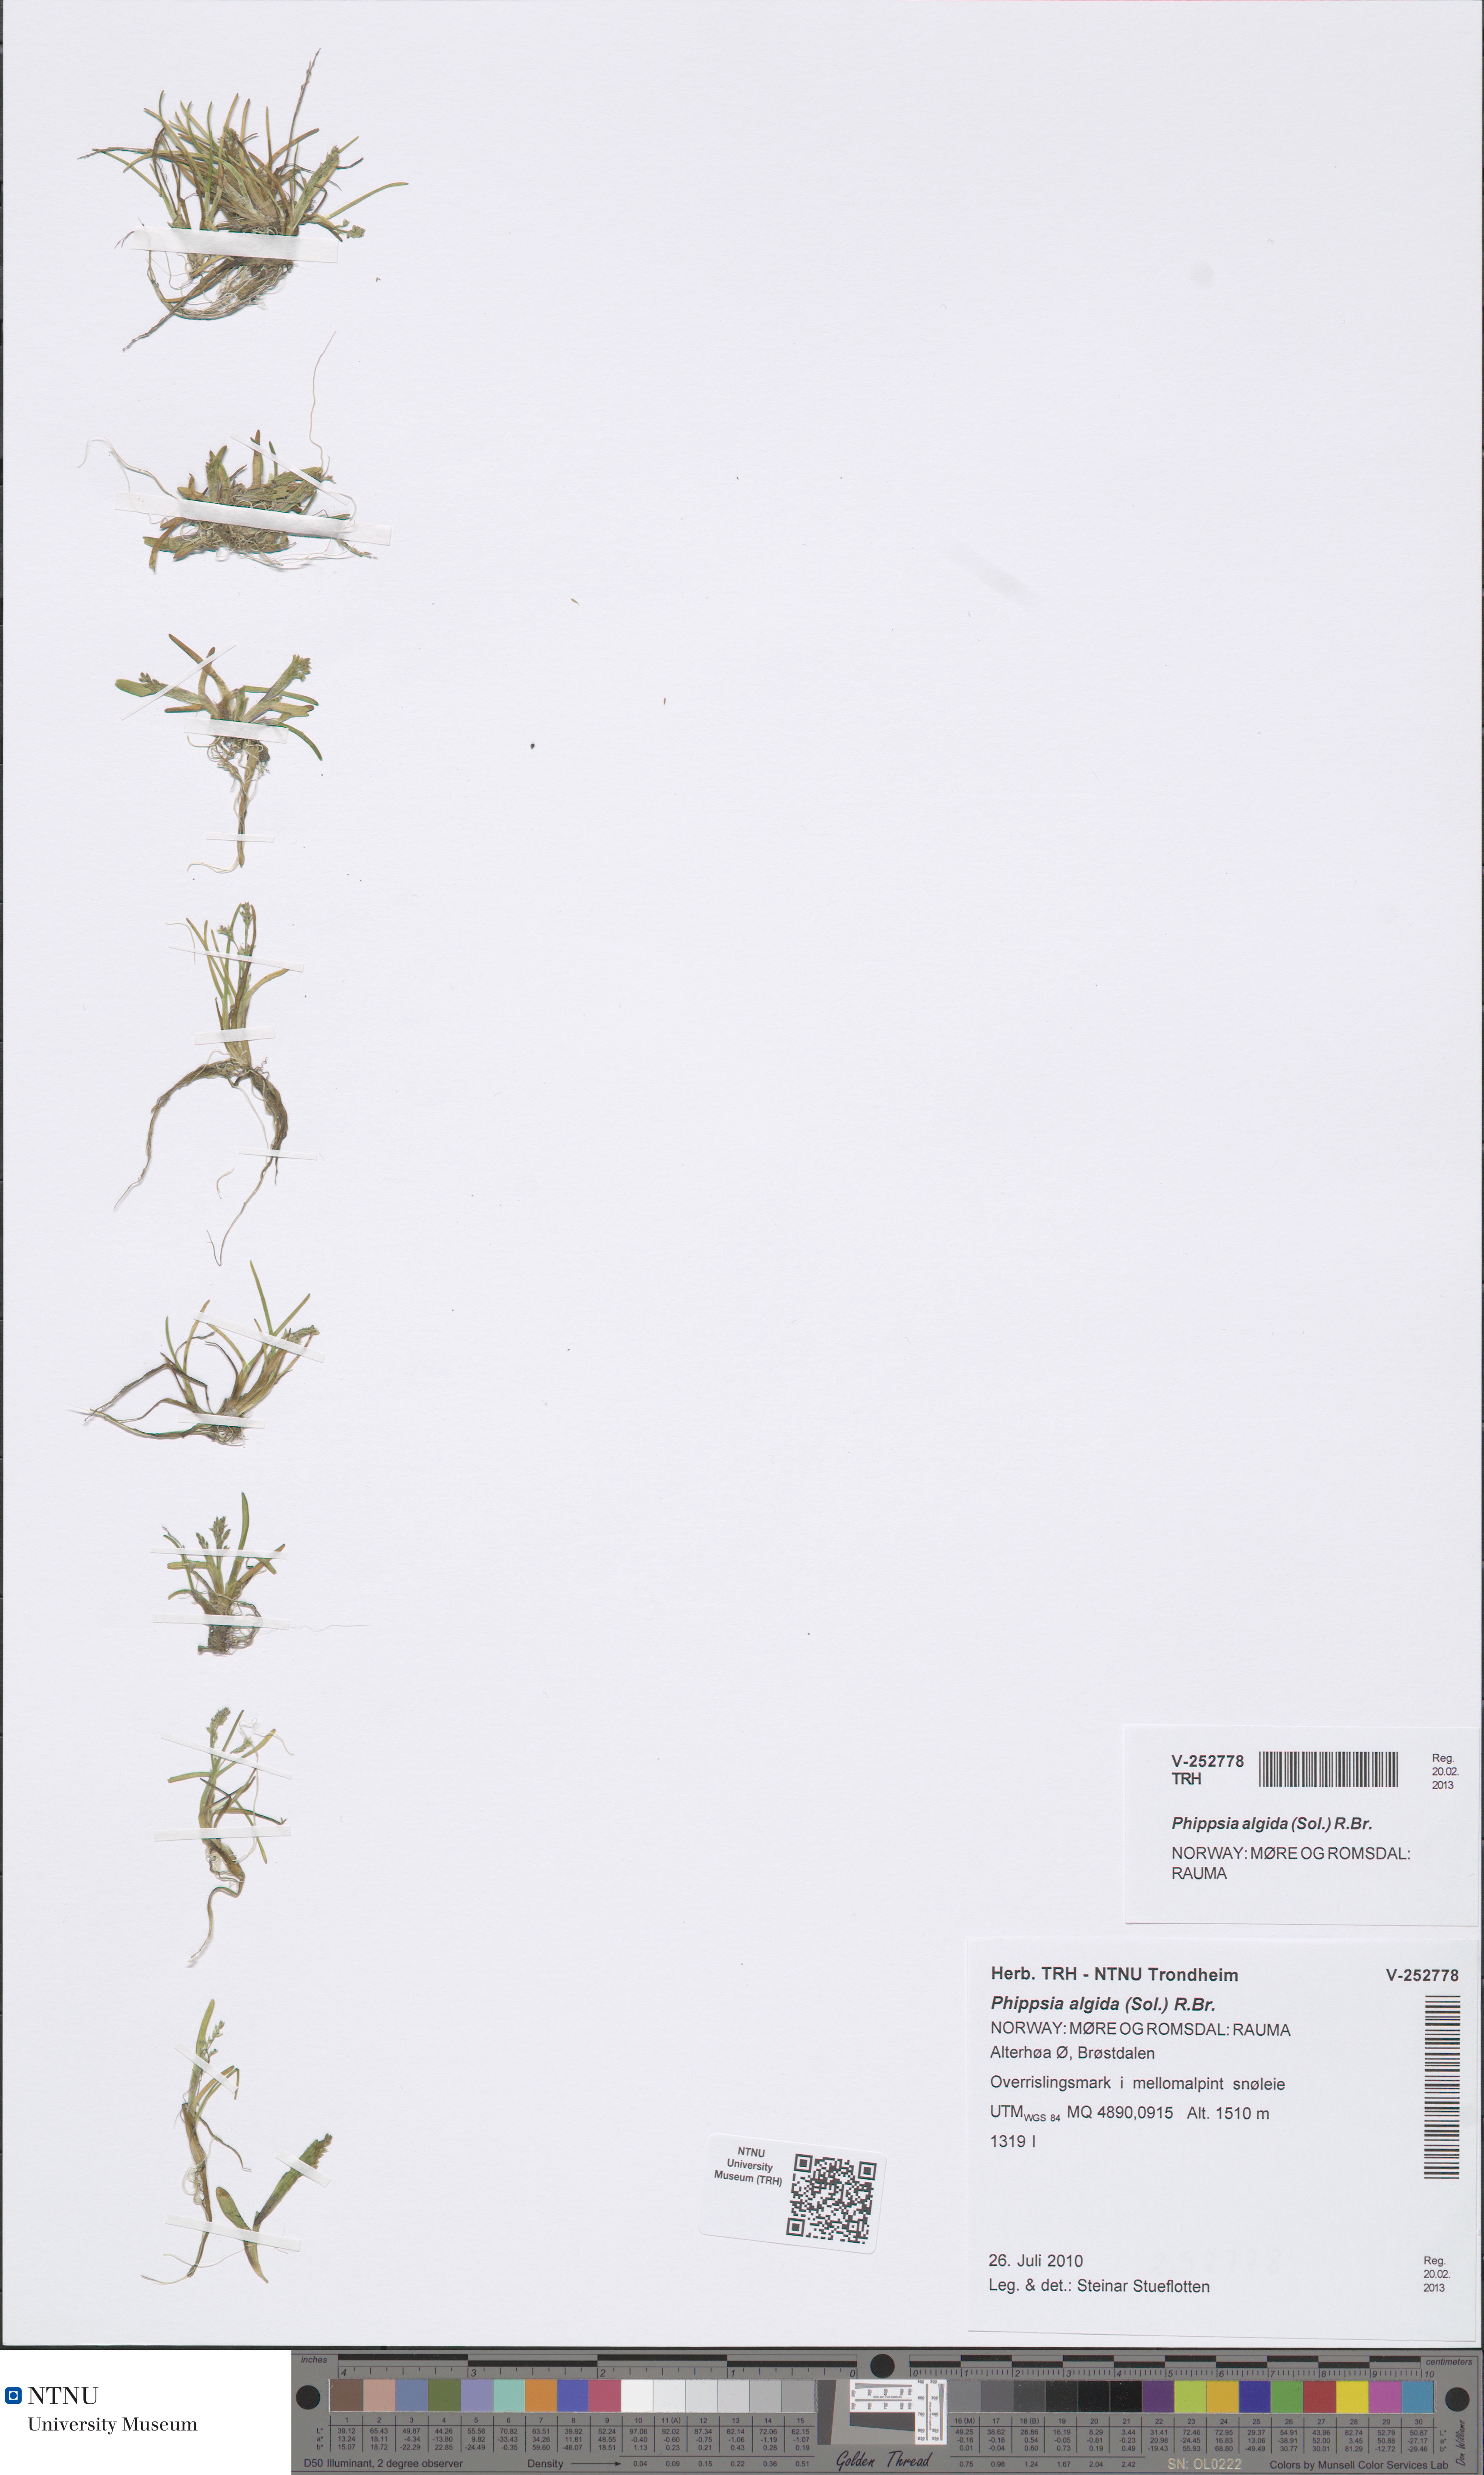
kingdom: Plantae
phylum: Tracheophyta
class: Liliopsida
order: Poales
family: Poaceae
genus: Phippsia
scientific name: Phippsia algida
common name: Ice grass
